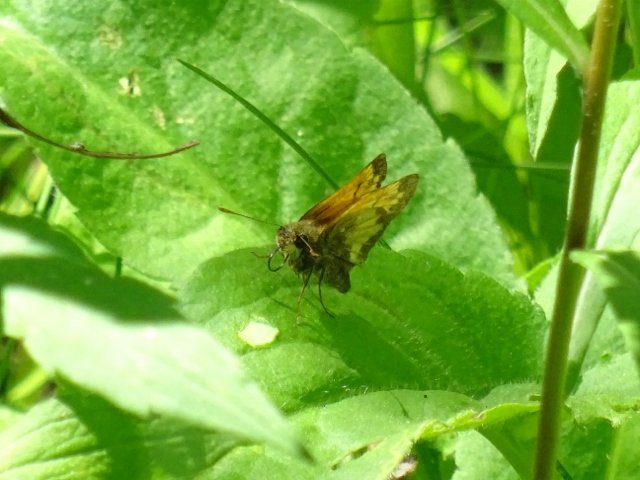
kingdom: Animalia
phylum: Arthropoda
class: Insecta
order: Lepidoptera
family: Hesperiidae
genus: Lon
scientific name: Lon hobomok
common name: Hobomok Skipper
